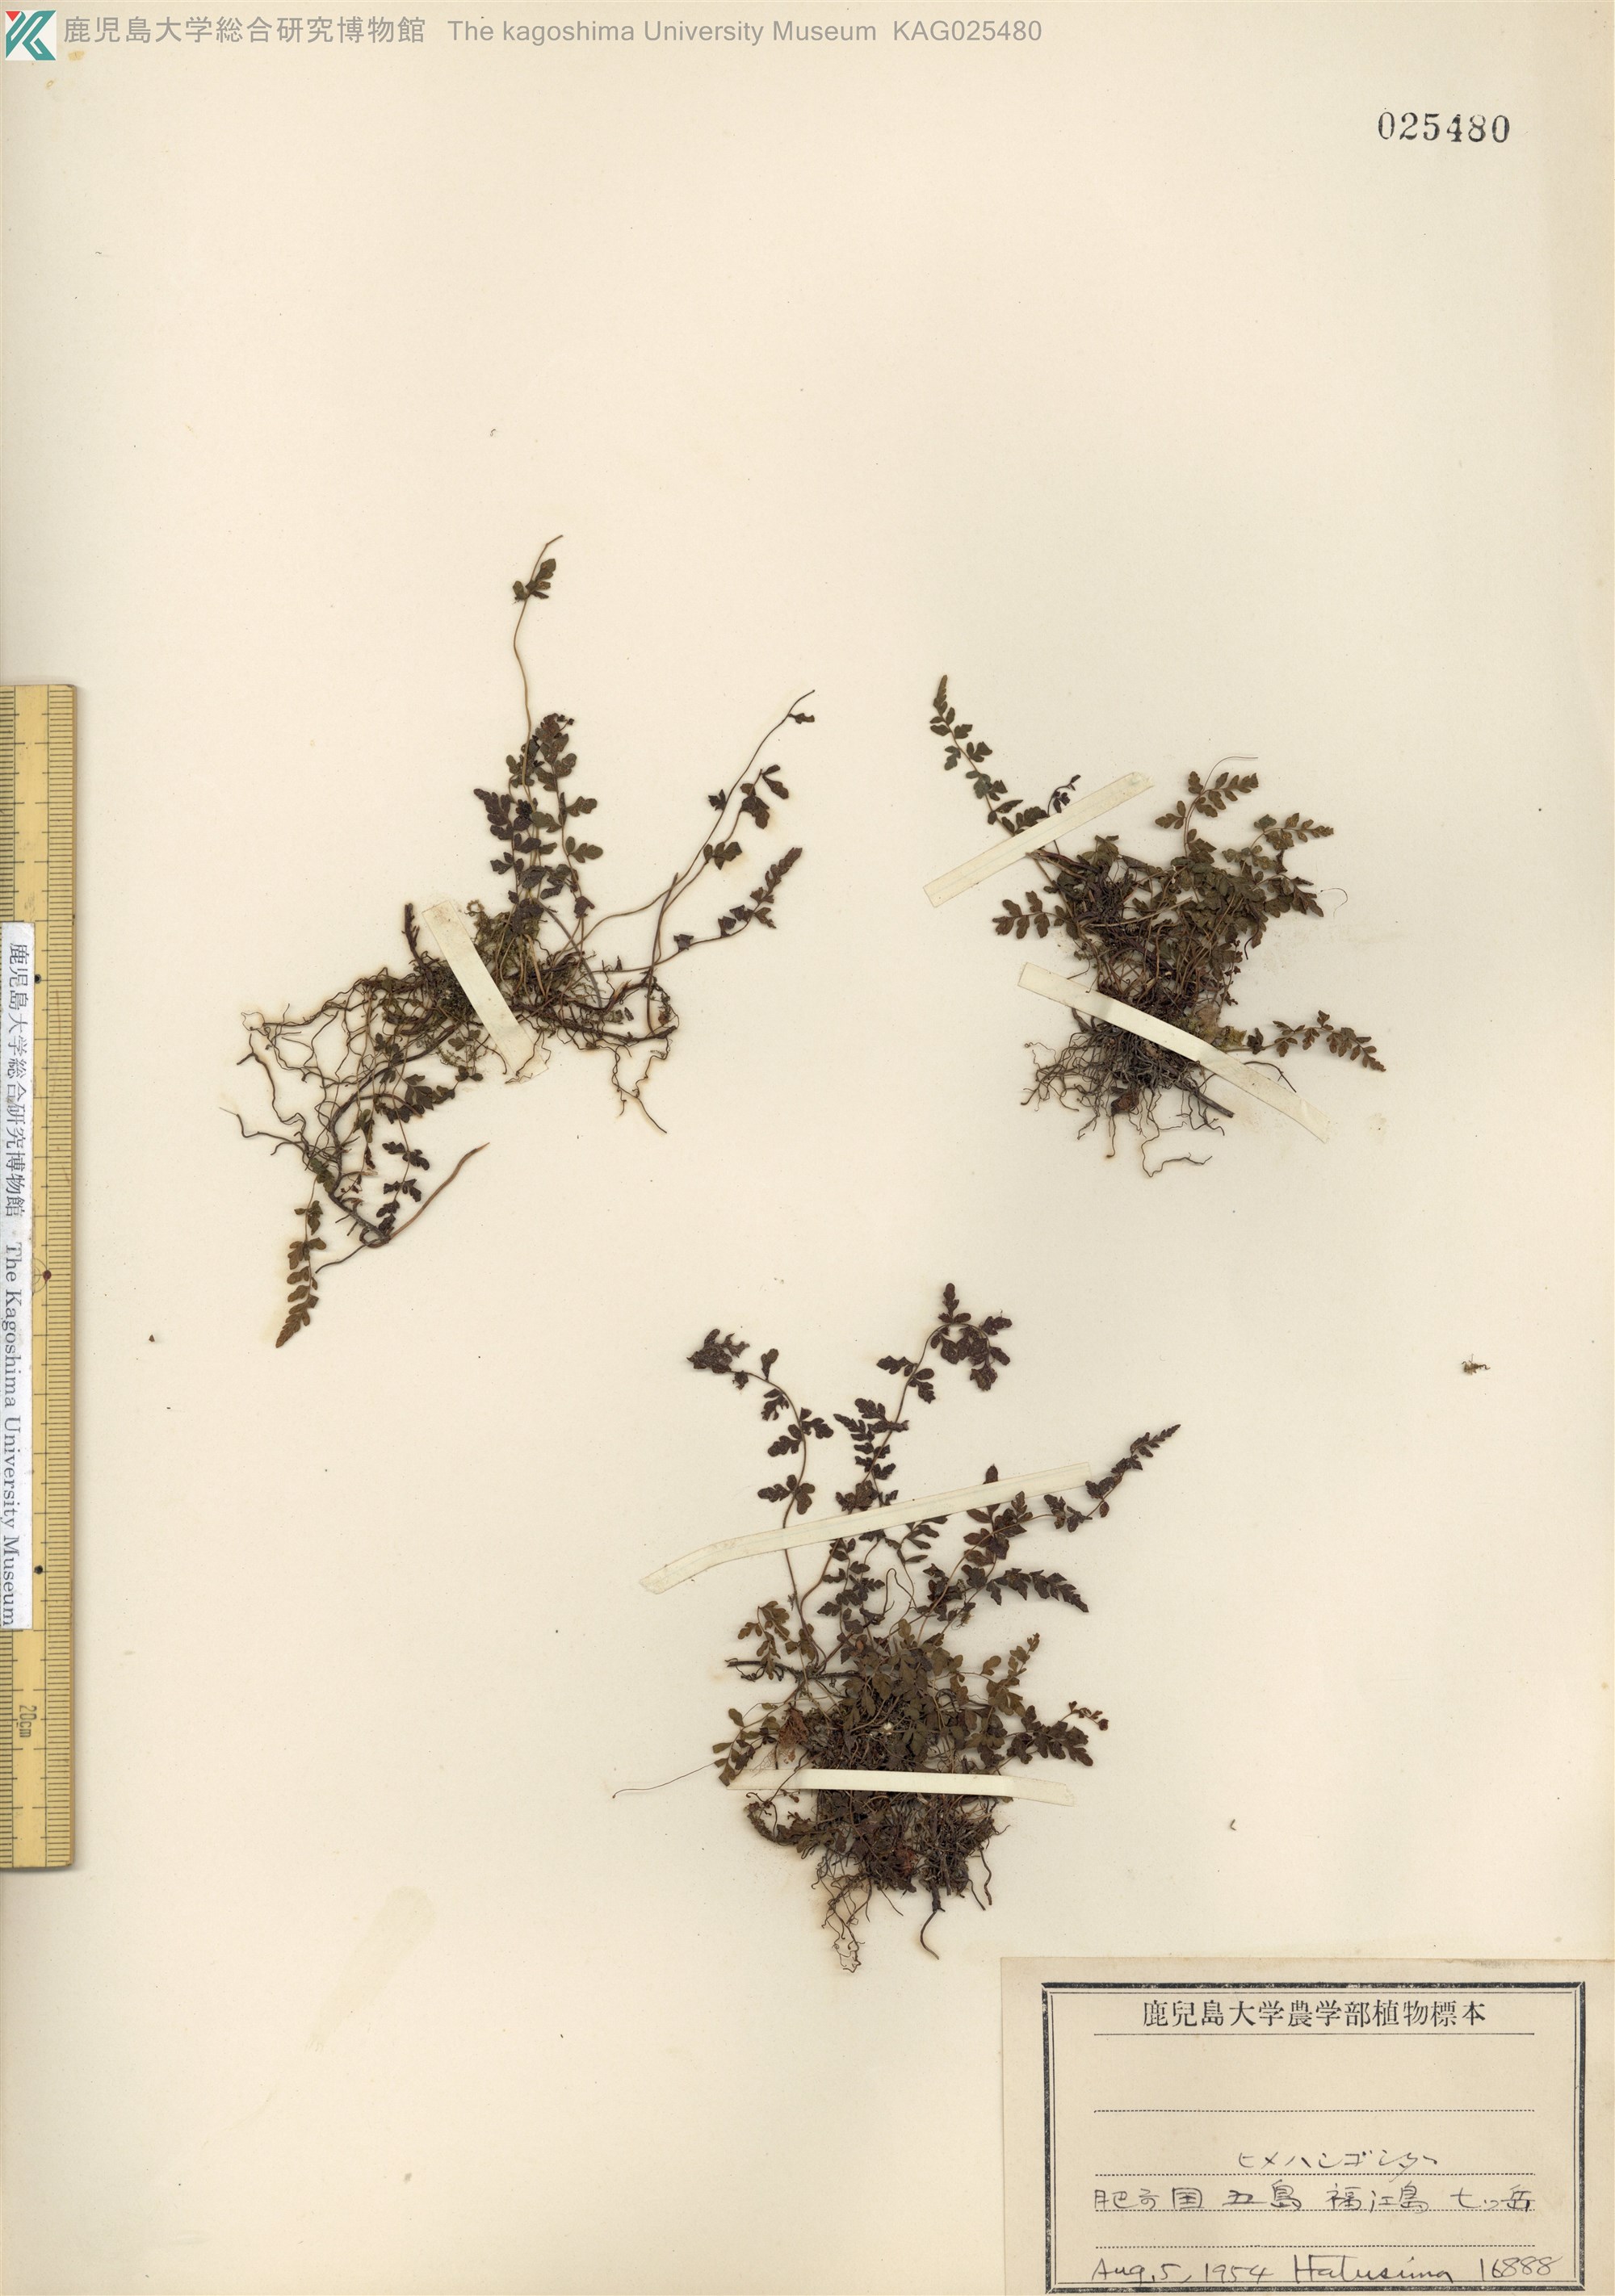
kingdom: Plantae
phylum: Tracheophyta
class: Polypodiopsida
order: Polypodiales
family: Thelypteridaceae
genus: Amauropelta
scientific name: Amauropelta cystopteroides
